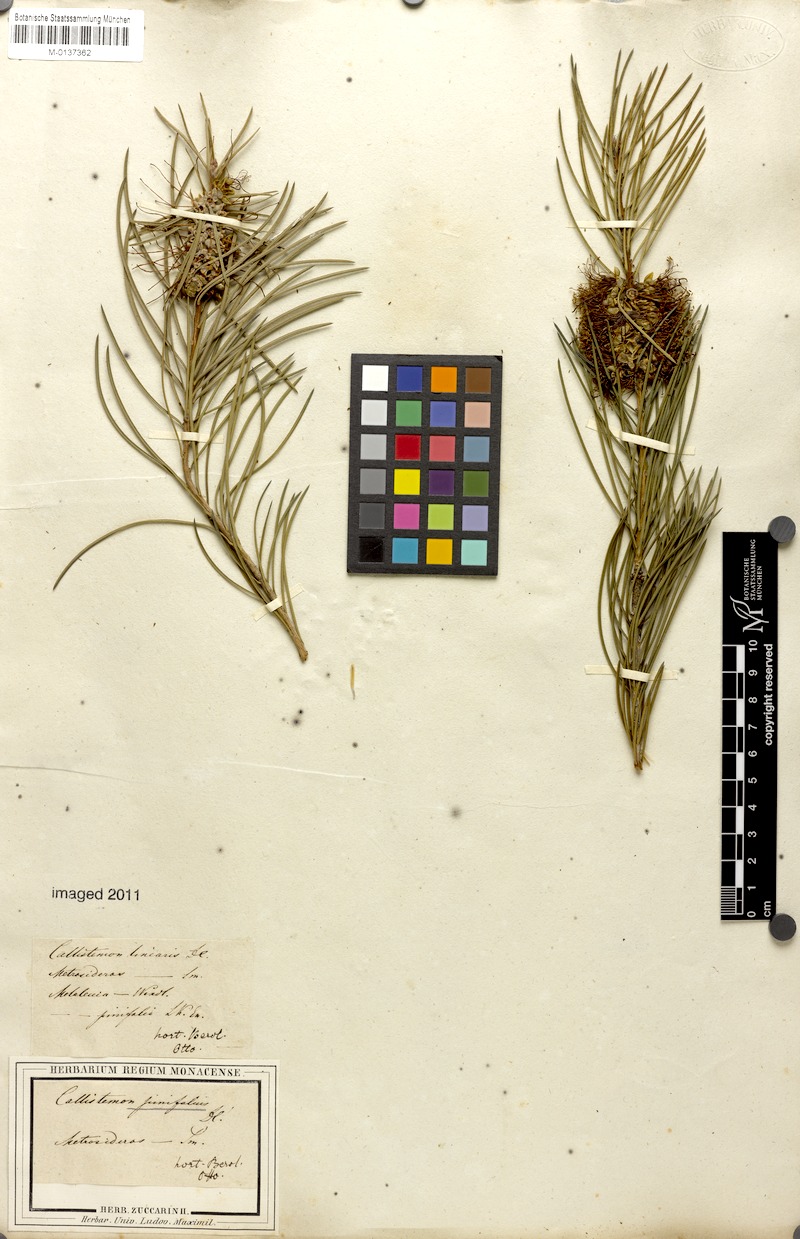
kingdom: Plantae
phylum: Tracheophyta
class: Magnoliopsida
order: Myrtales
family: Myrtaceae
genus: Callistemon
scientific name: Callistemon pinifolius
